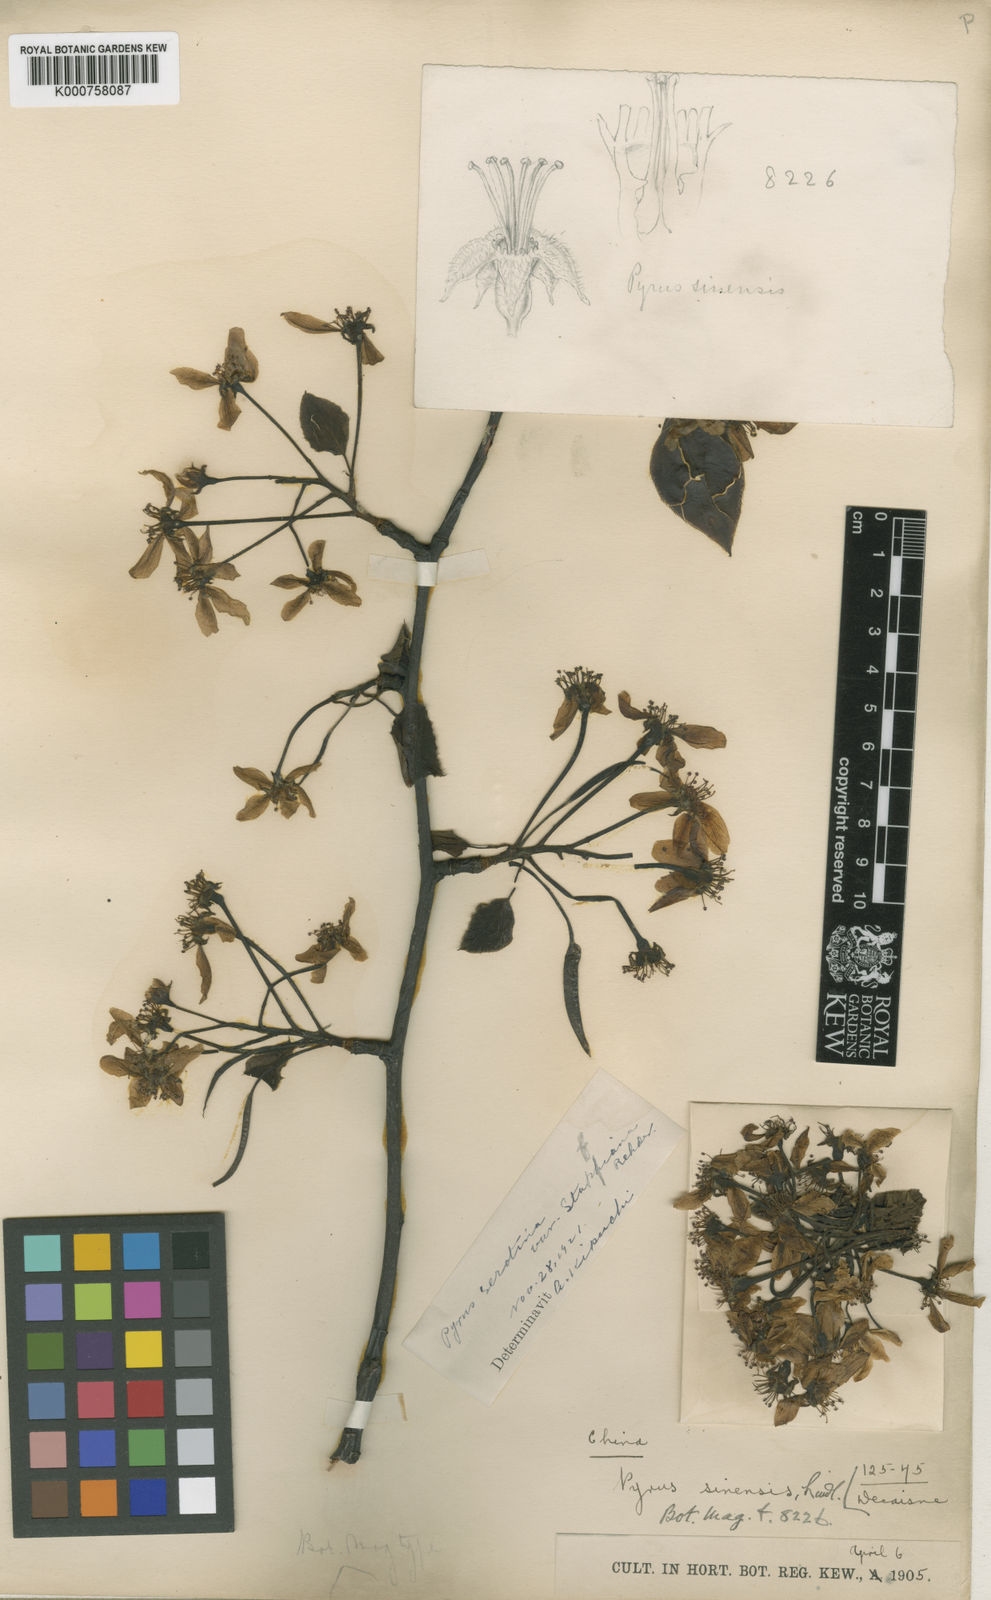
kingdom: Plantae
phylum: Tracheophyta
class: Magnoliopsida
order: Rosales
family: Rosaceae
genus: Pyrus
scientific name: Pyrus pyrifolia
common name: Chinese pear
